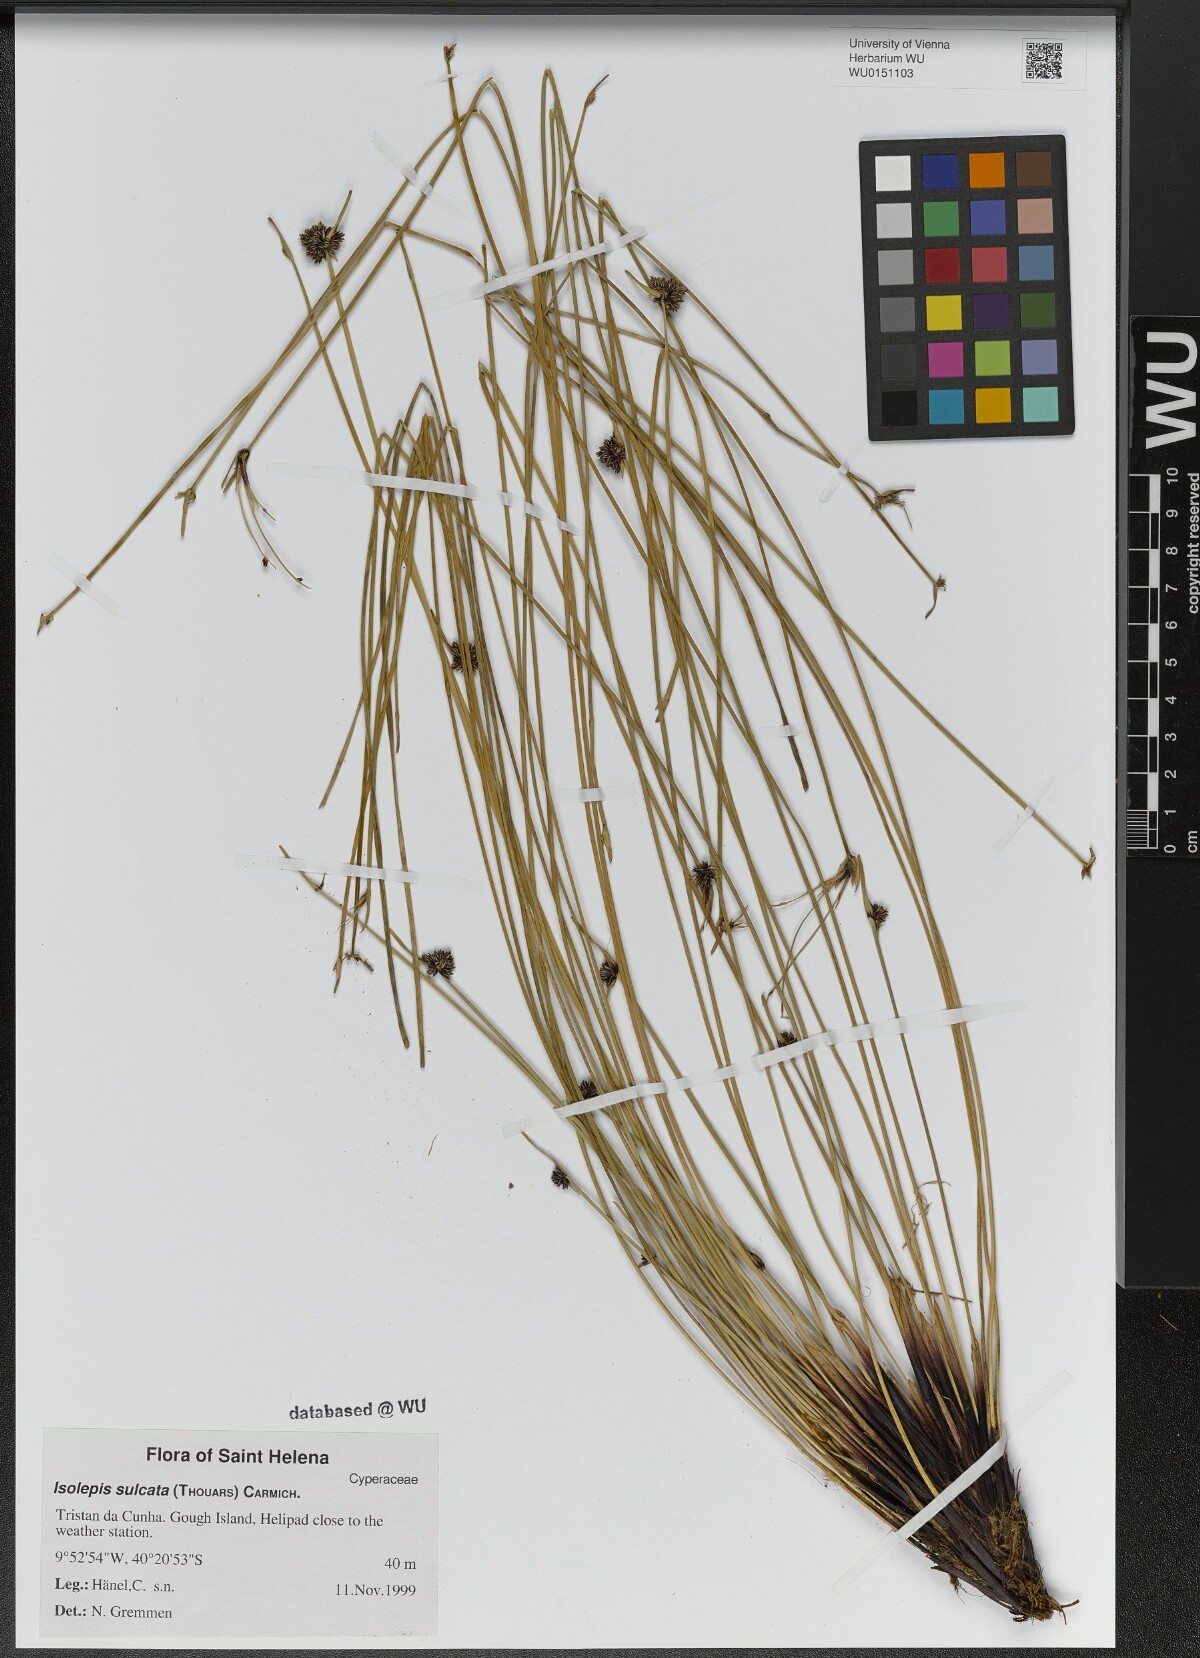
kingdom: Plantae
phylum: Tracheophyta
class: Liliopsida
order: Poales
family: Cyperaceae
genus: Isolepis
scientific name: Isolepis sulcata
